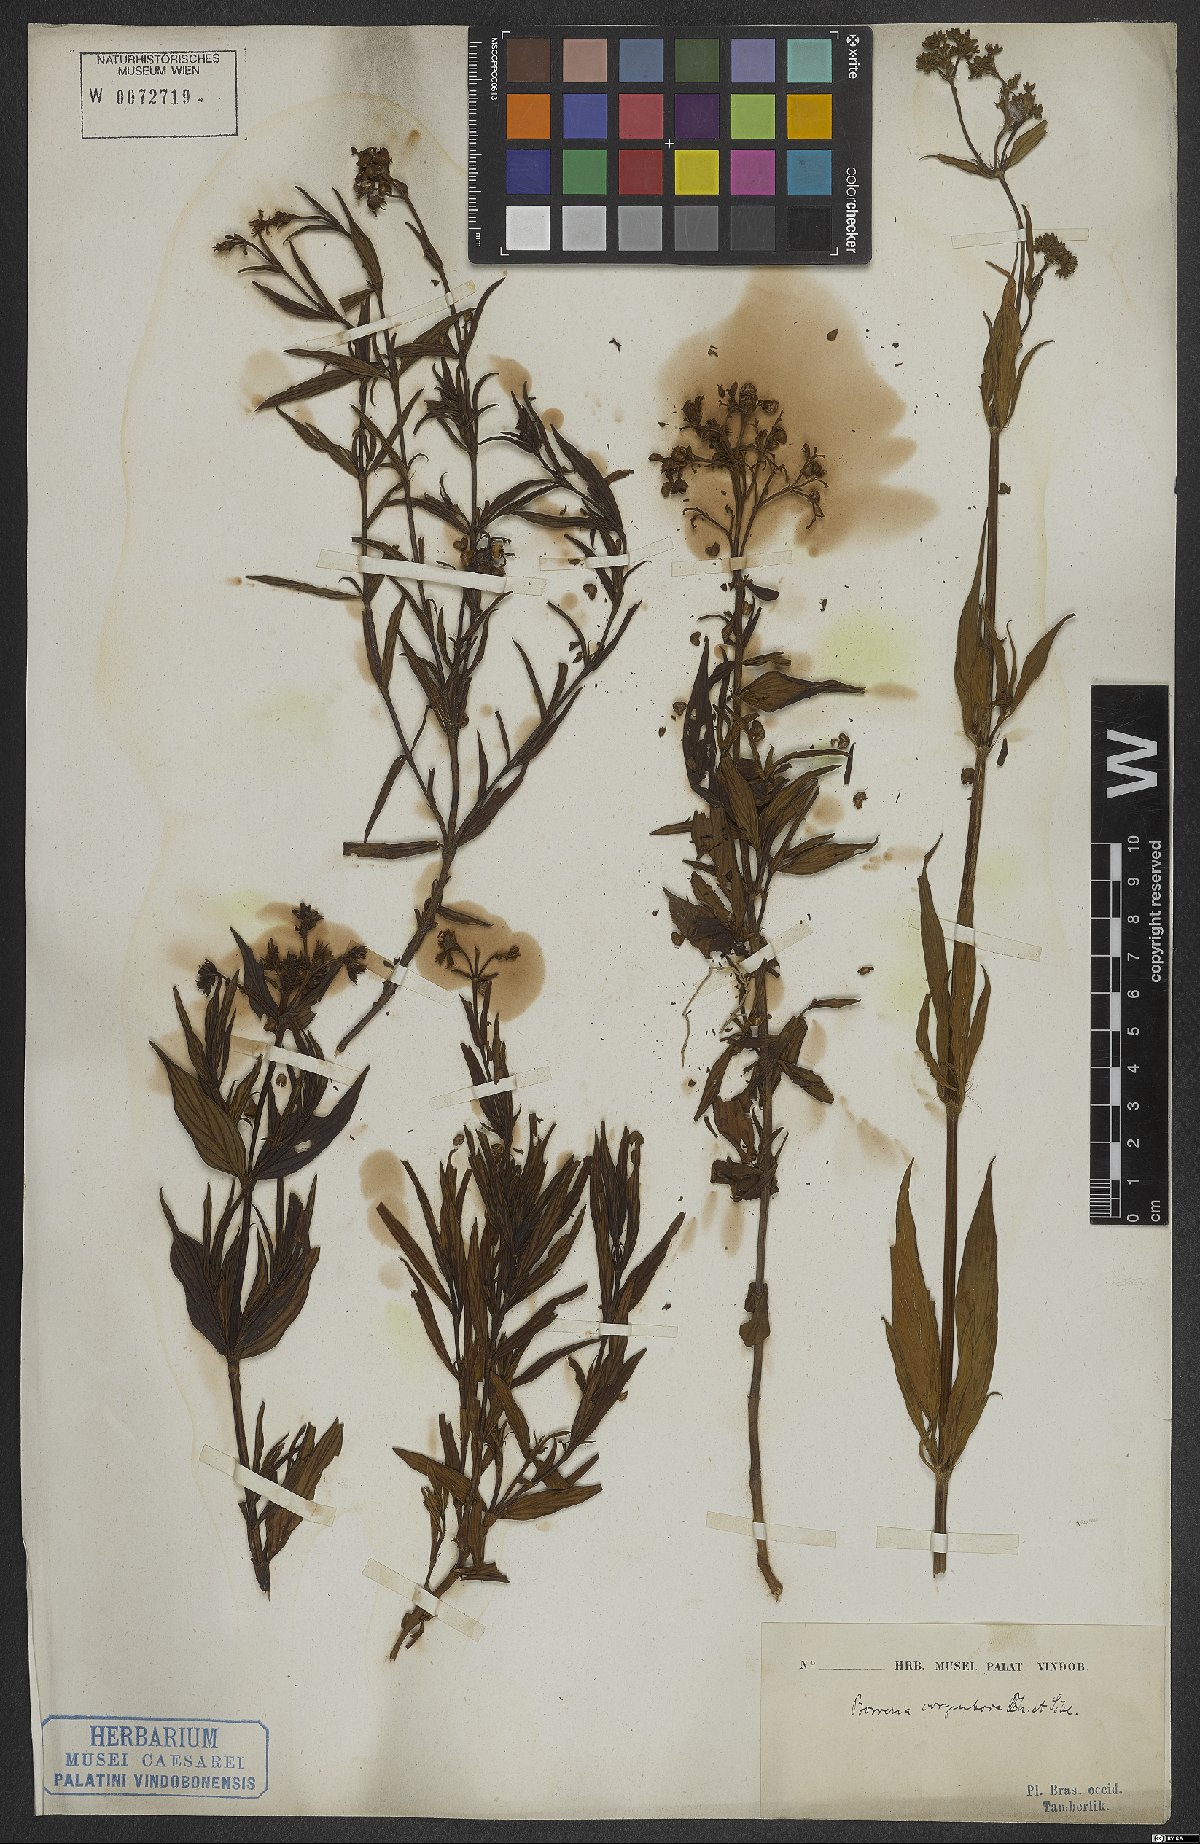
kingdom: Plantae
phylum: Tracheophyta
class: Magnoliopsida
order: Gentianales
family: Rubiaceae
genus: Galianthe
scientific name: Galianthe peruviana
